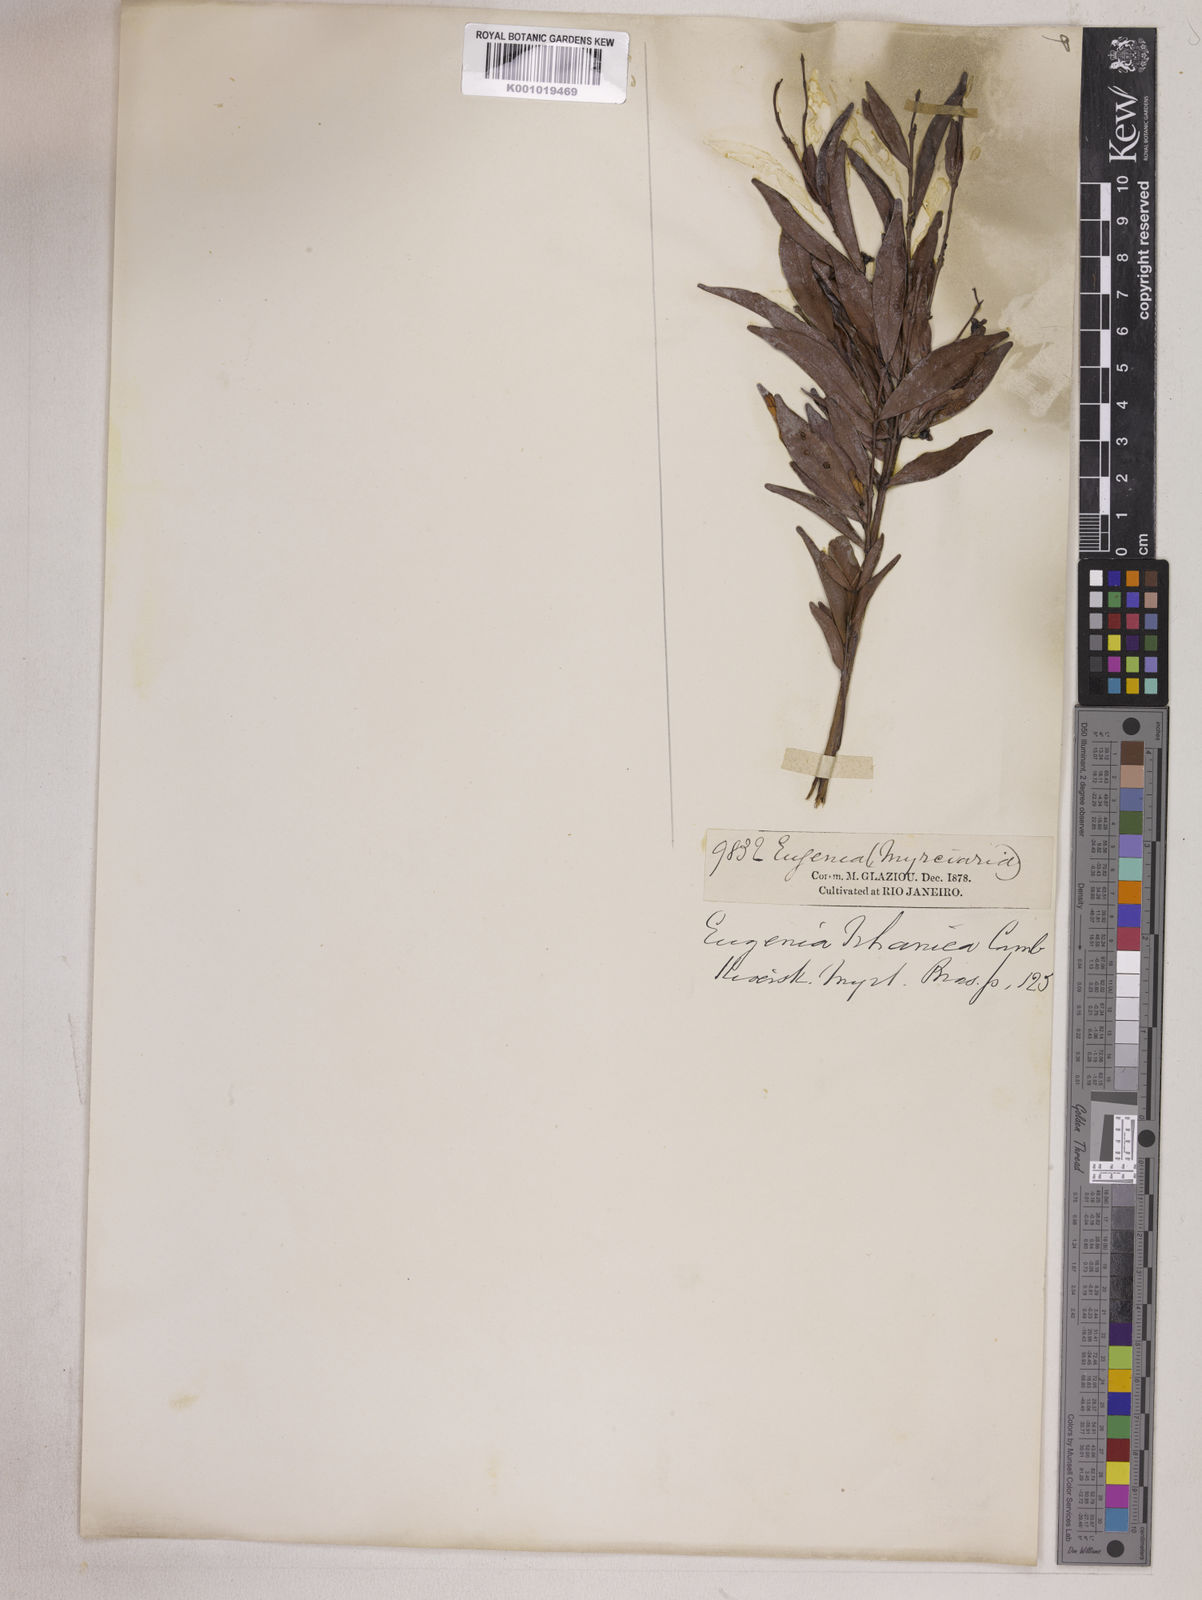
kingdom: Plantae
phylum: Tracheophyta
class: Magnoliopsida
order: Myrtales
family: Myrtaceae
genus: Eugenia
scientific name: Eugenia punicifolia
